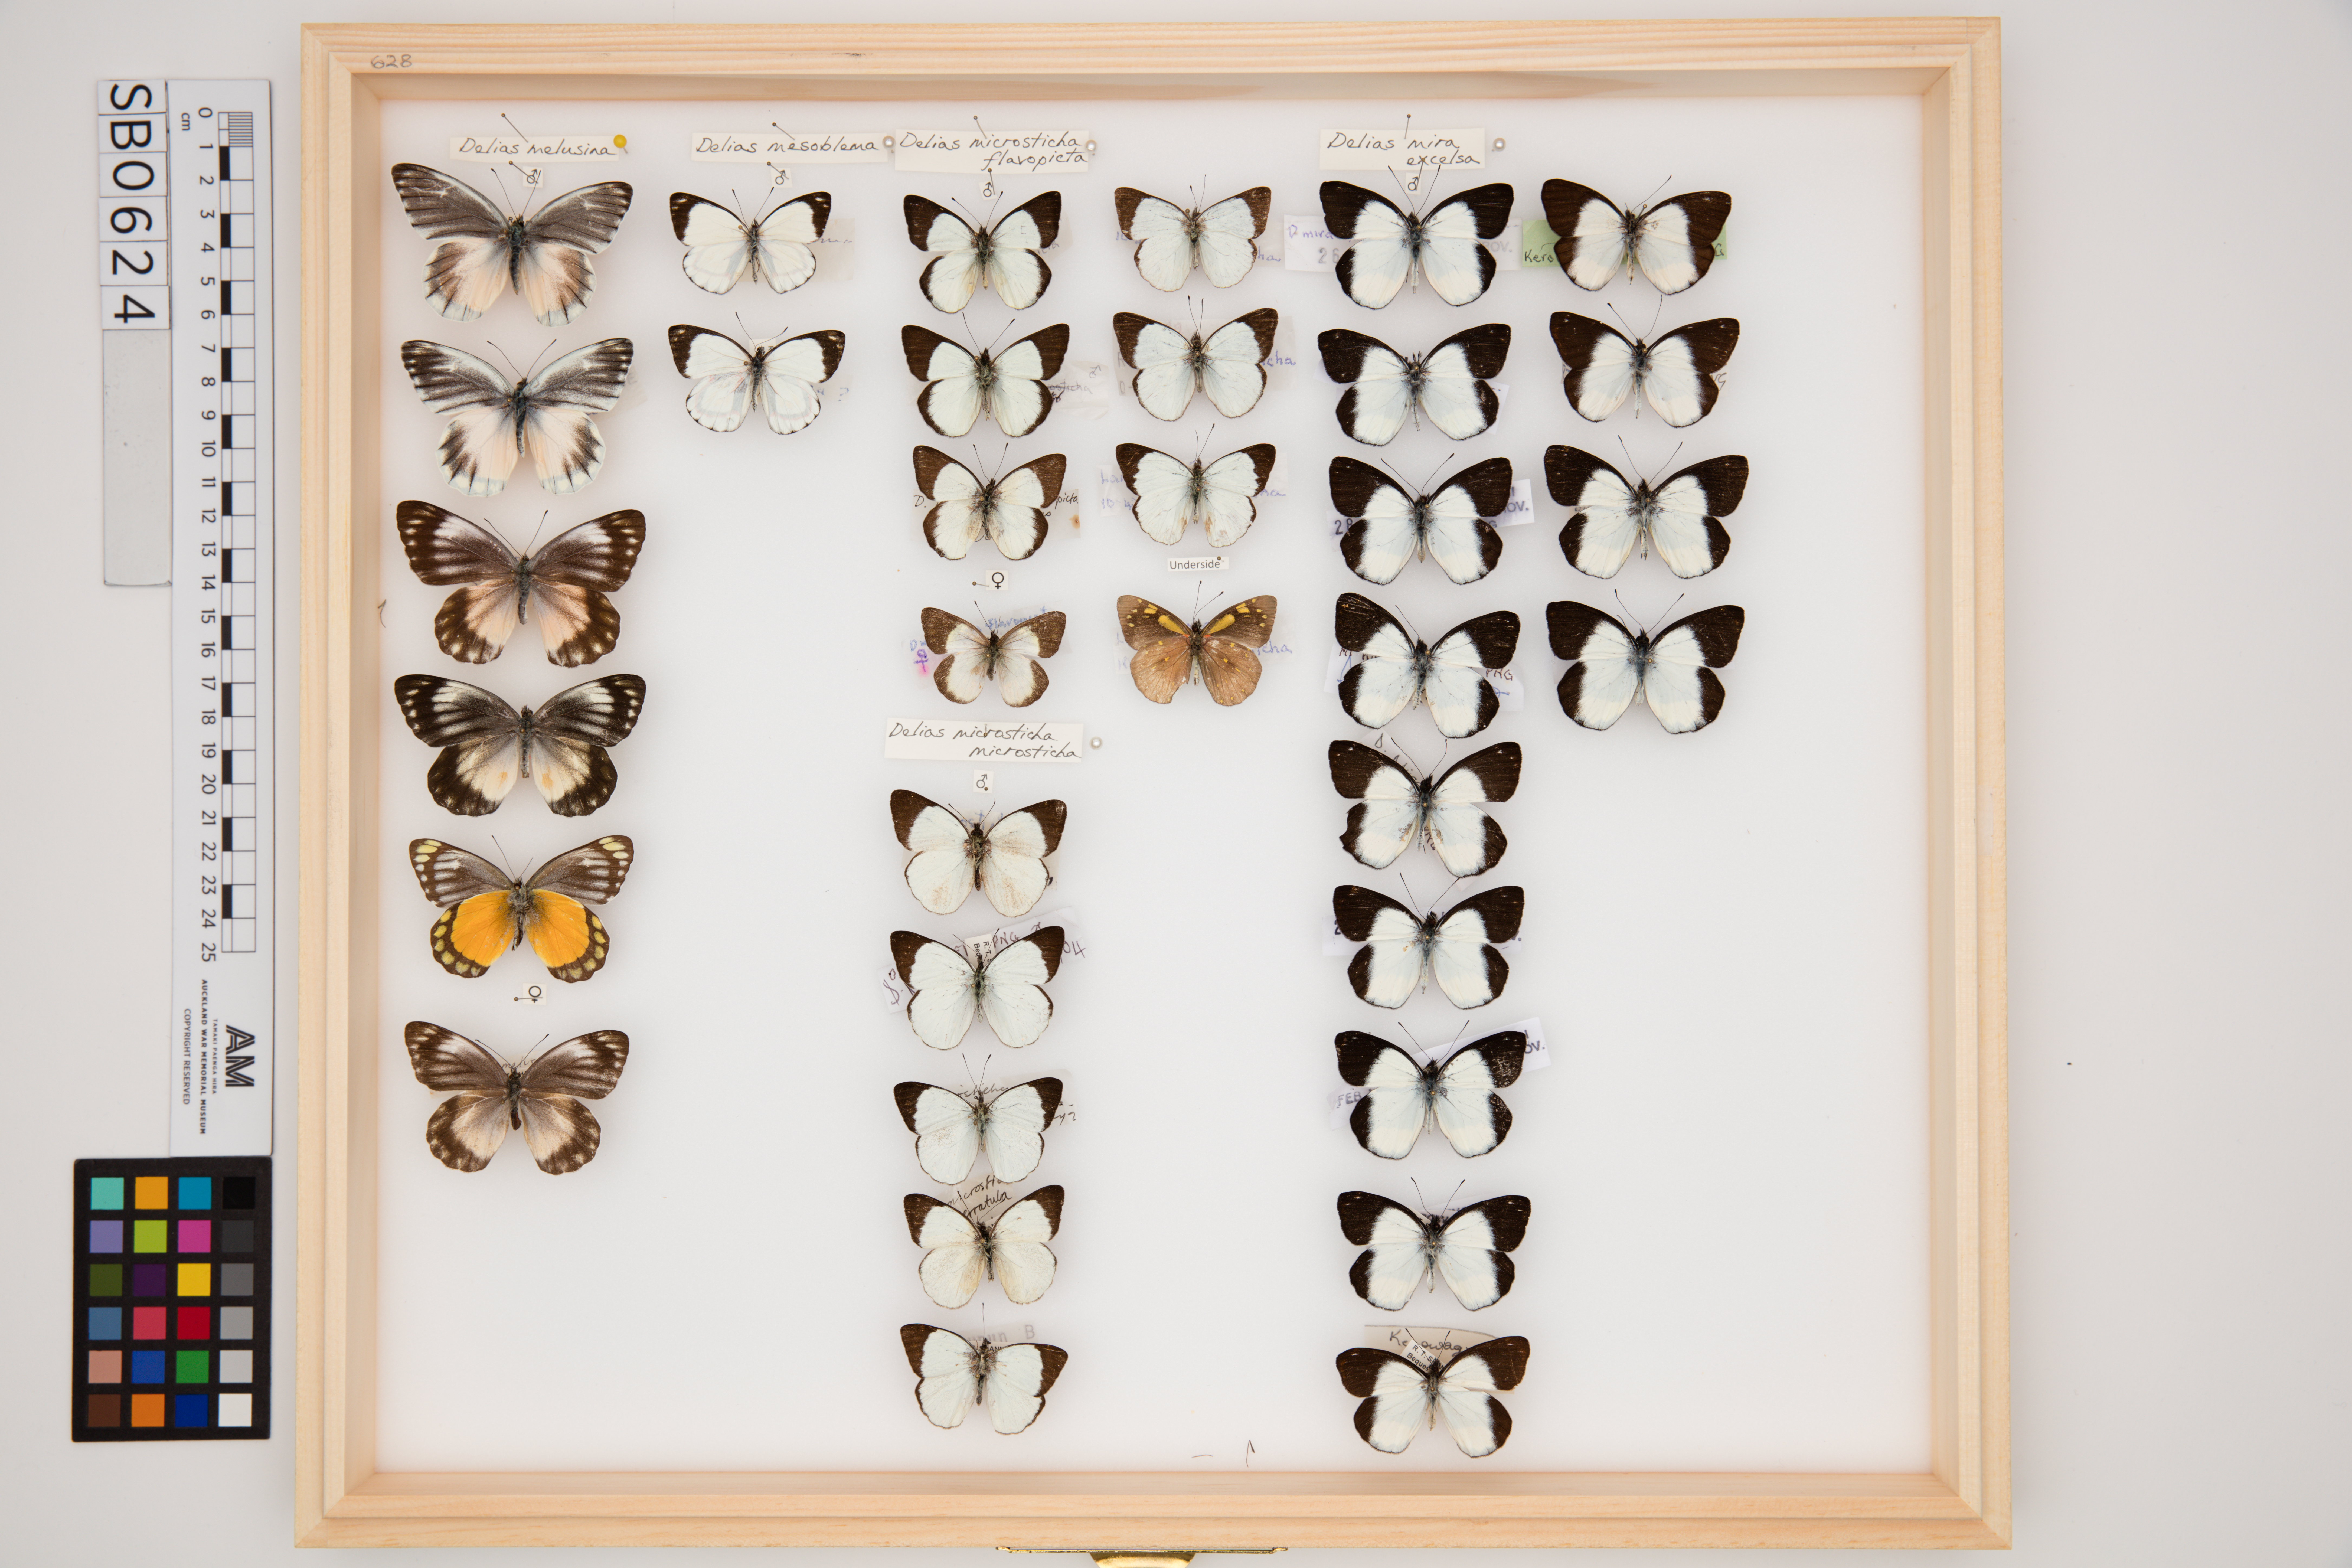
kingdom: Animalia
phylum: Arthropoda
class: Insecta
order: Lepidoptera
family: Pieridae
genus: Delias
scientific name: Delias microsticha
